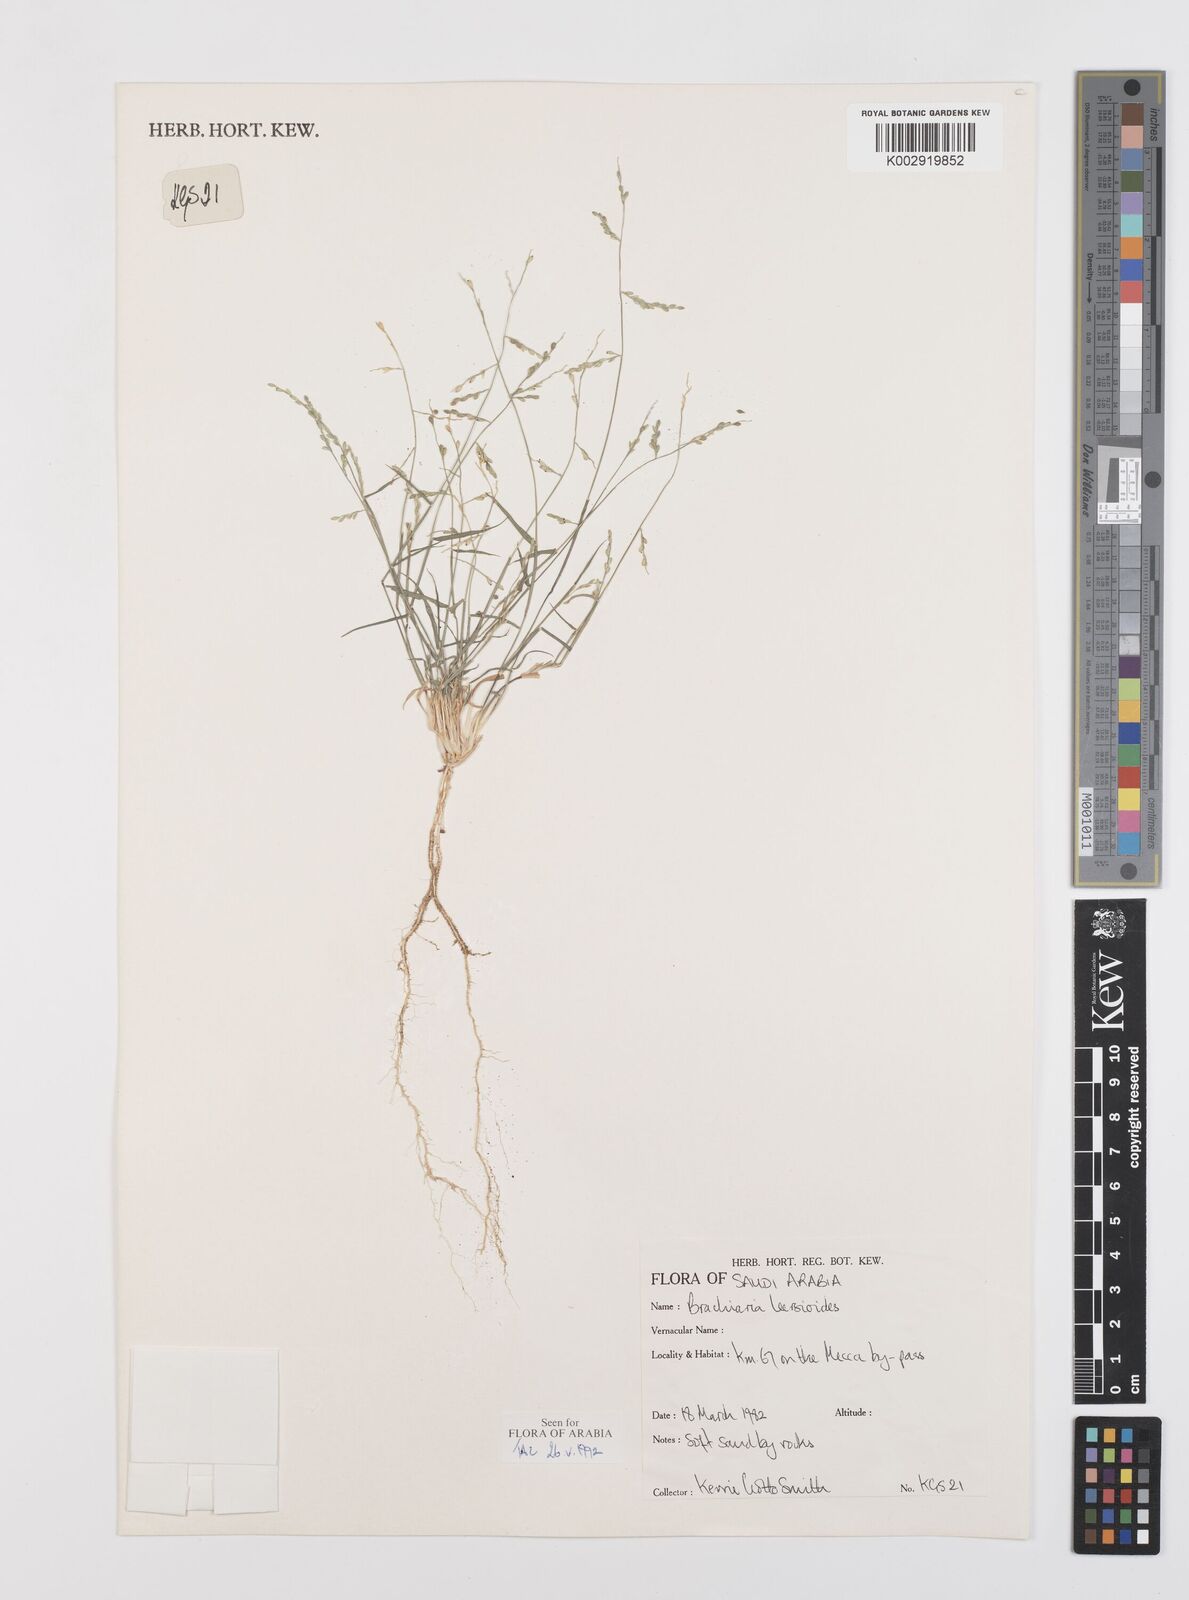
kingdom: Plantae
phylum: Tracheophyta
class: Liliopsida
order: Poales
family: Poaceae
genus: Urochloa
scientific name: Urochloa leersioides
